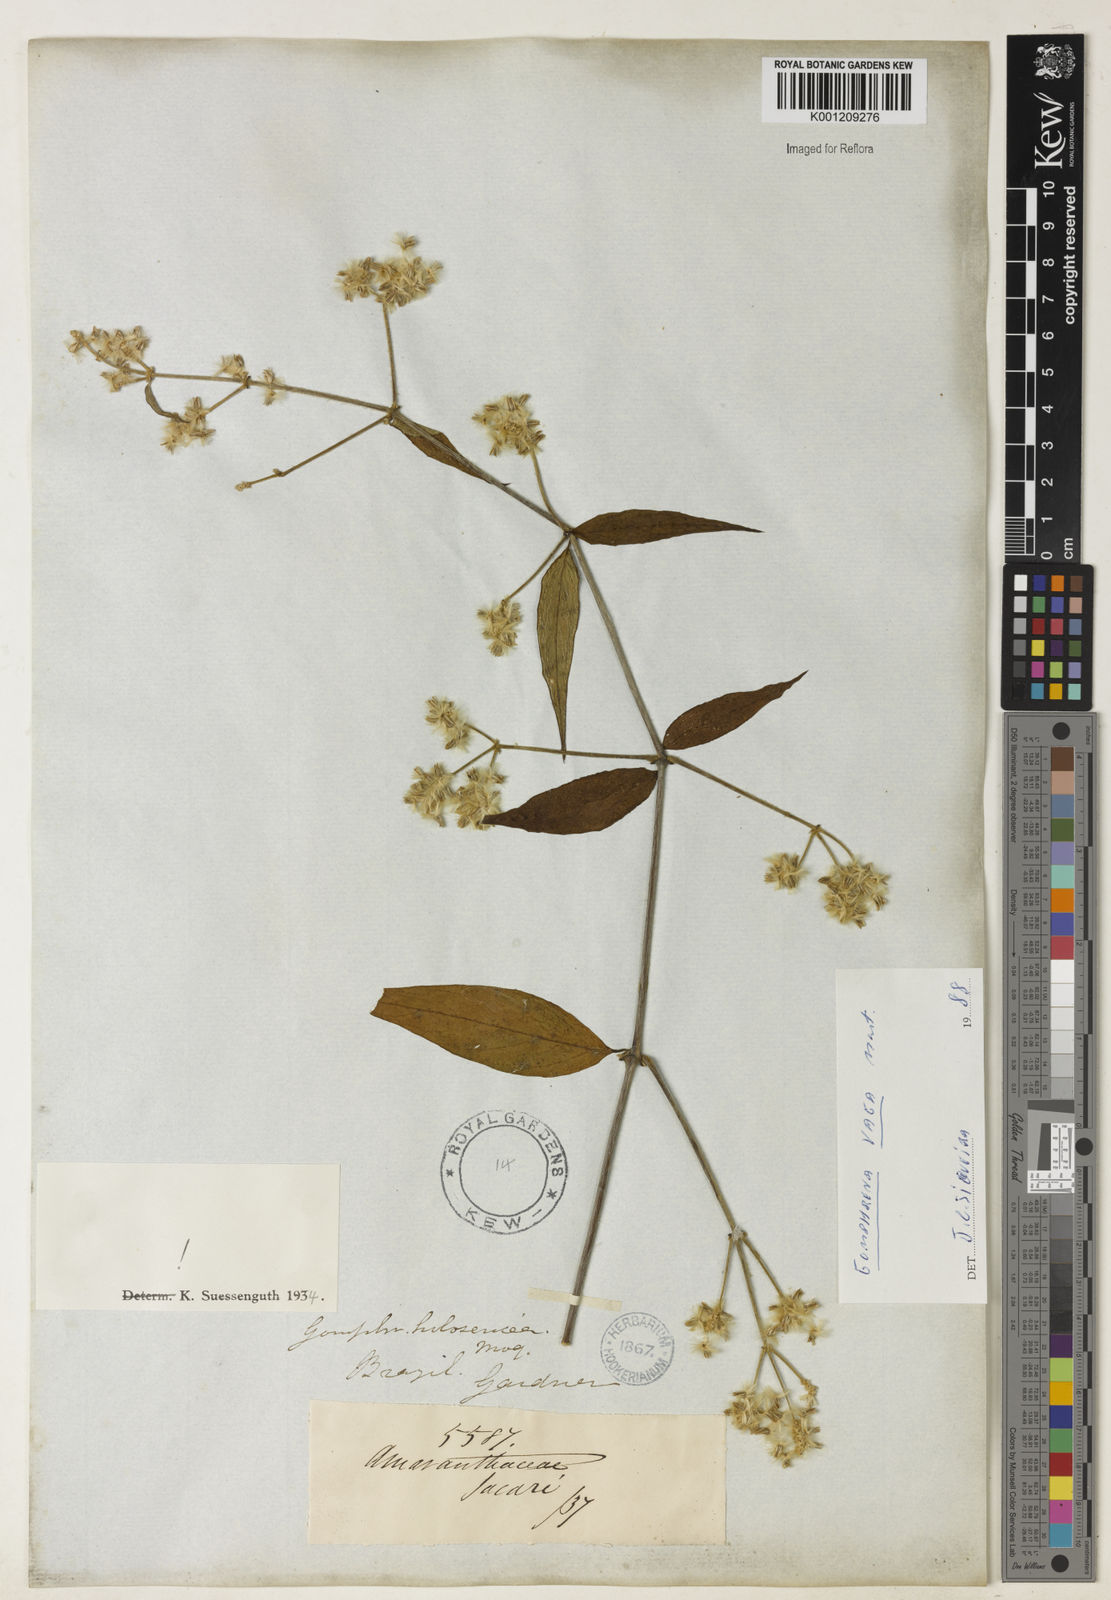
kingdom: Plantae
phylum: Tracheophyta
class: Magnoliopsida
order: Caryophyllales
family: Amaranthaceae
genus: Gomphrena
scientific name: Gomphrena vaga
